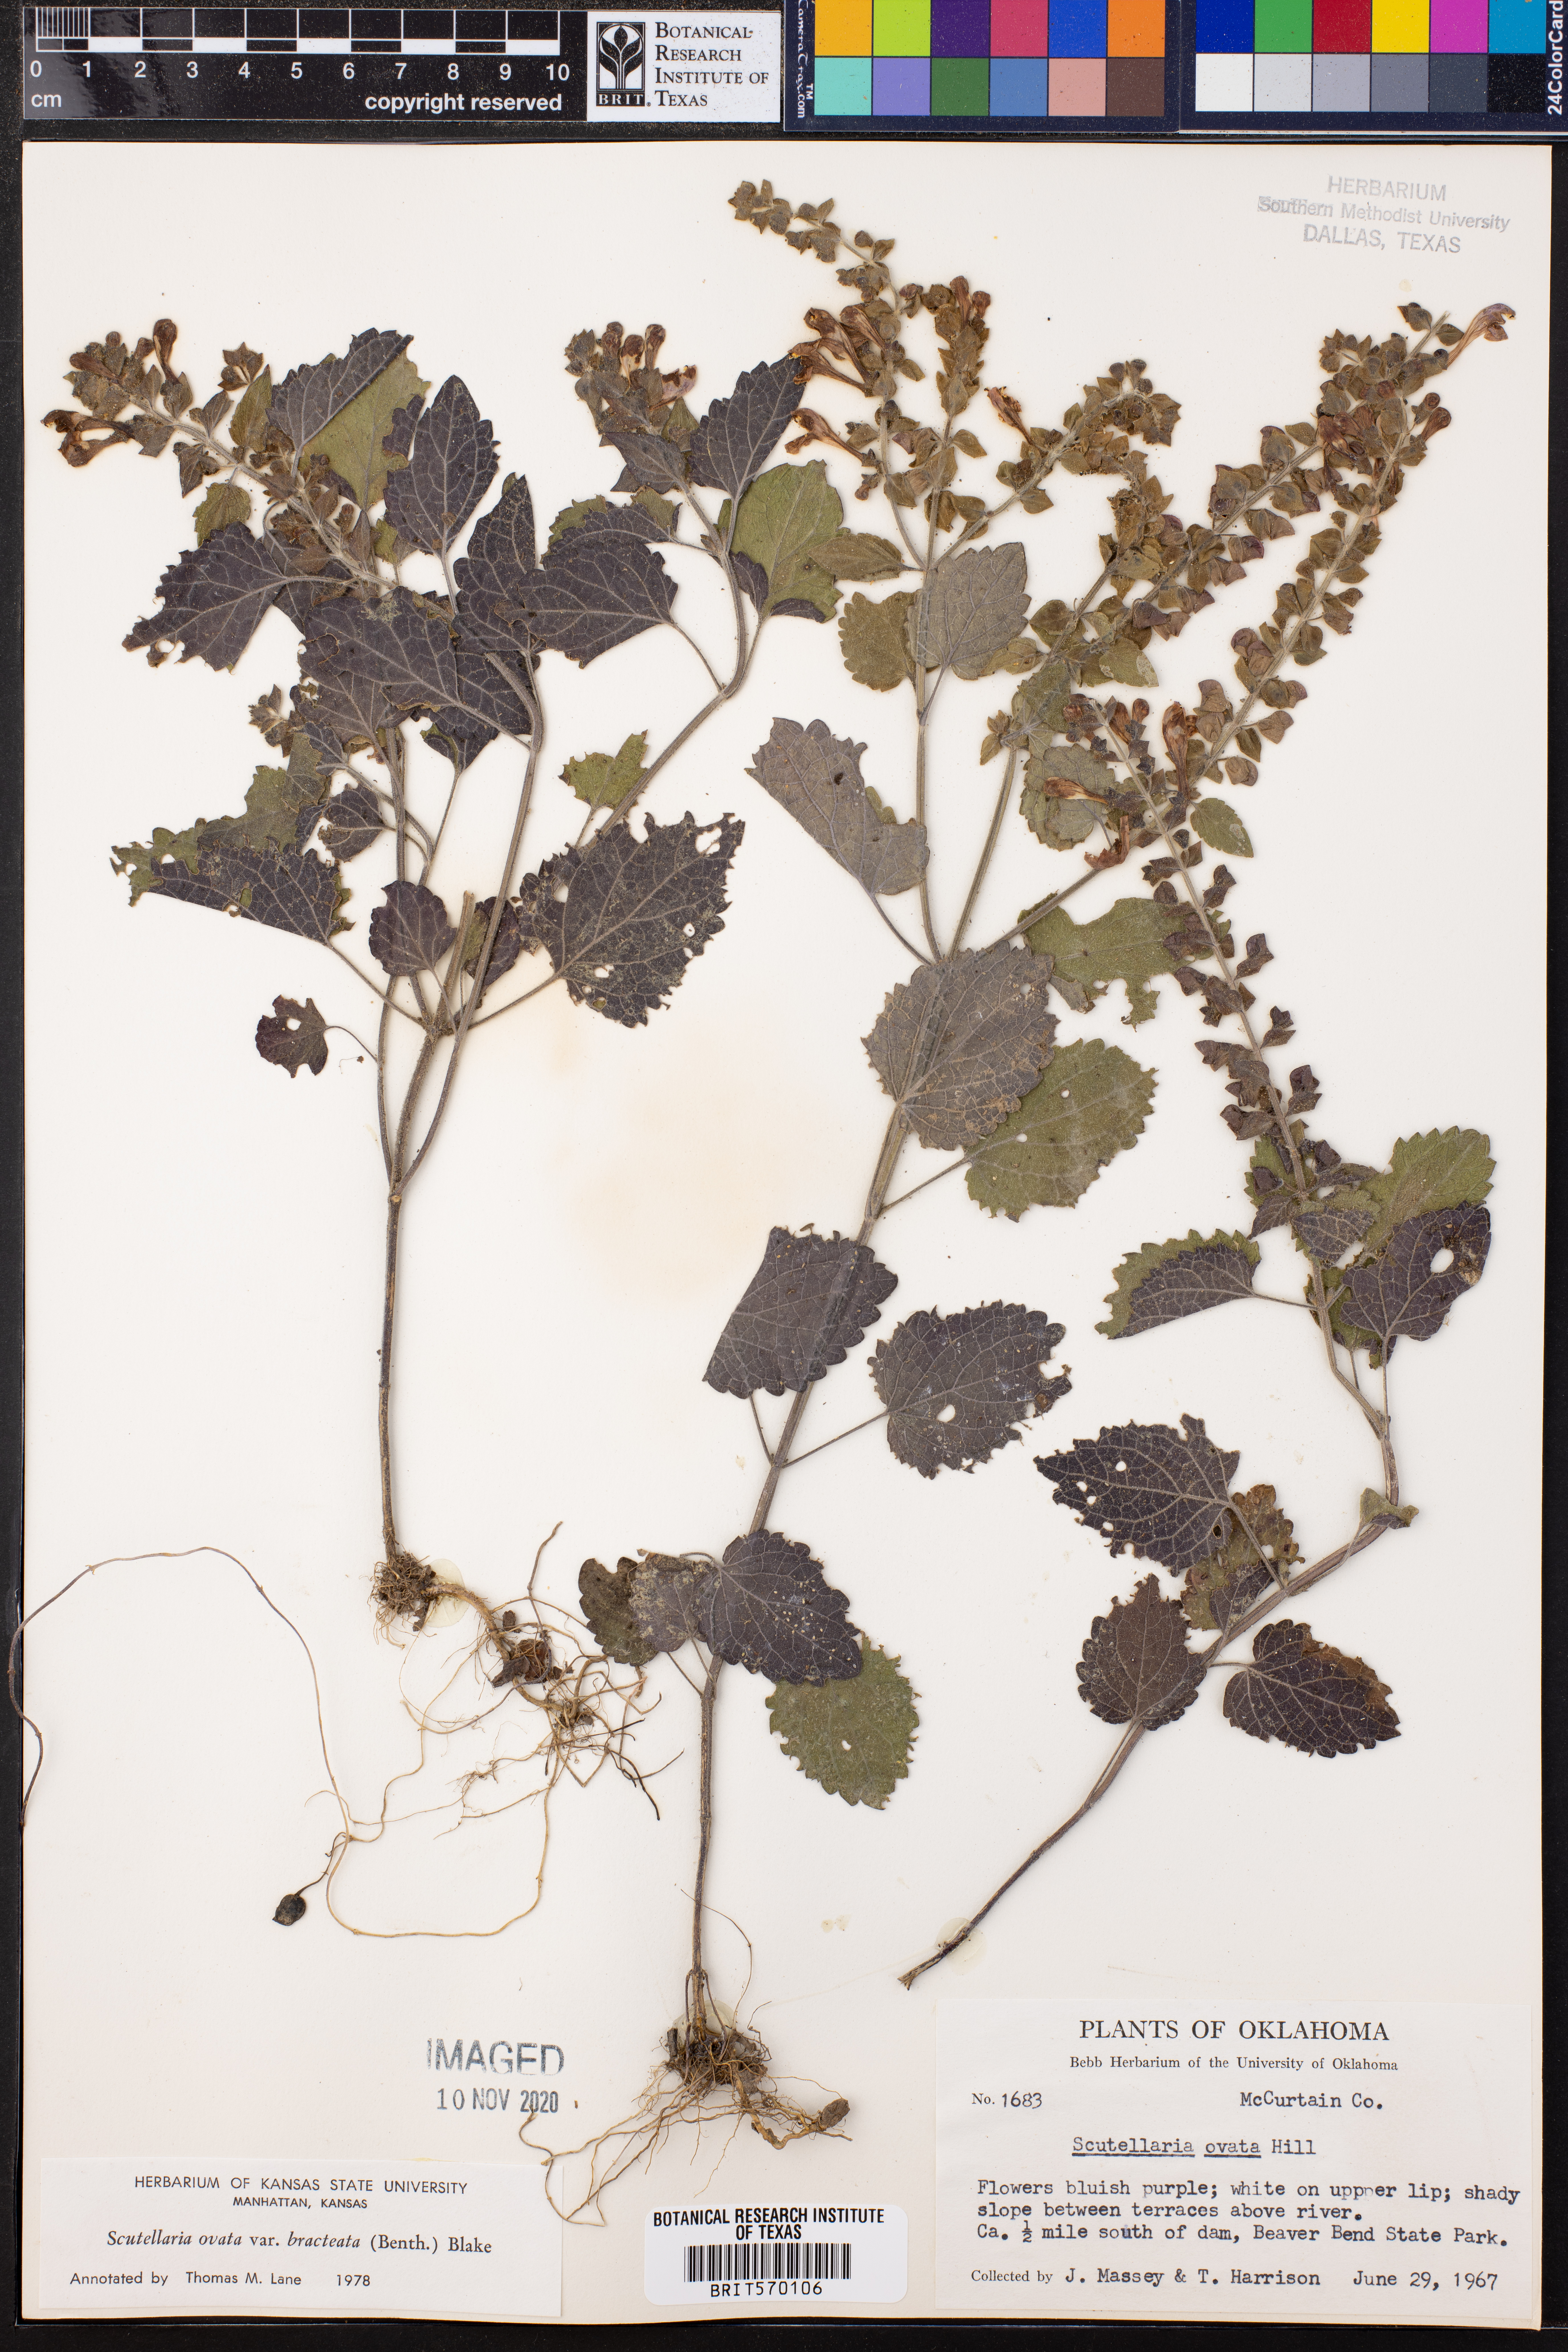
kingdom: Plantae
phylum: Tracheophyta
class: Magnoliopsida
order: Lamiales
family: Lamiaceae
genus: Scutellaria
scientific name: Scutellaria ovata
